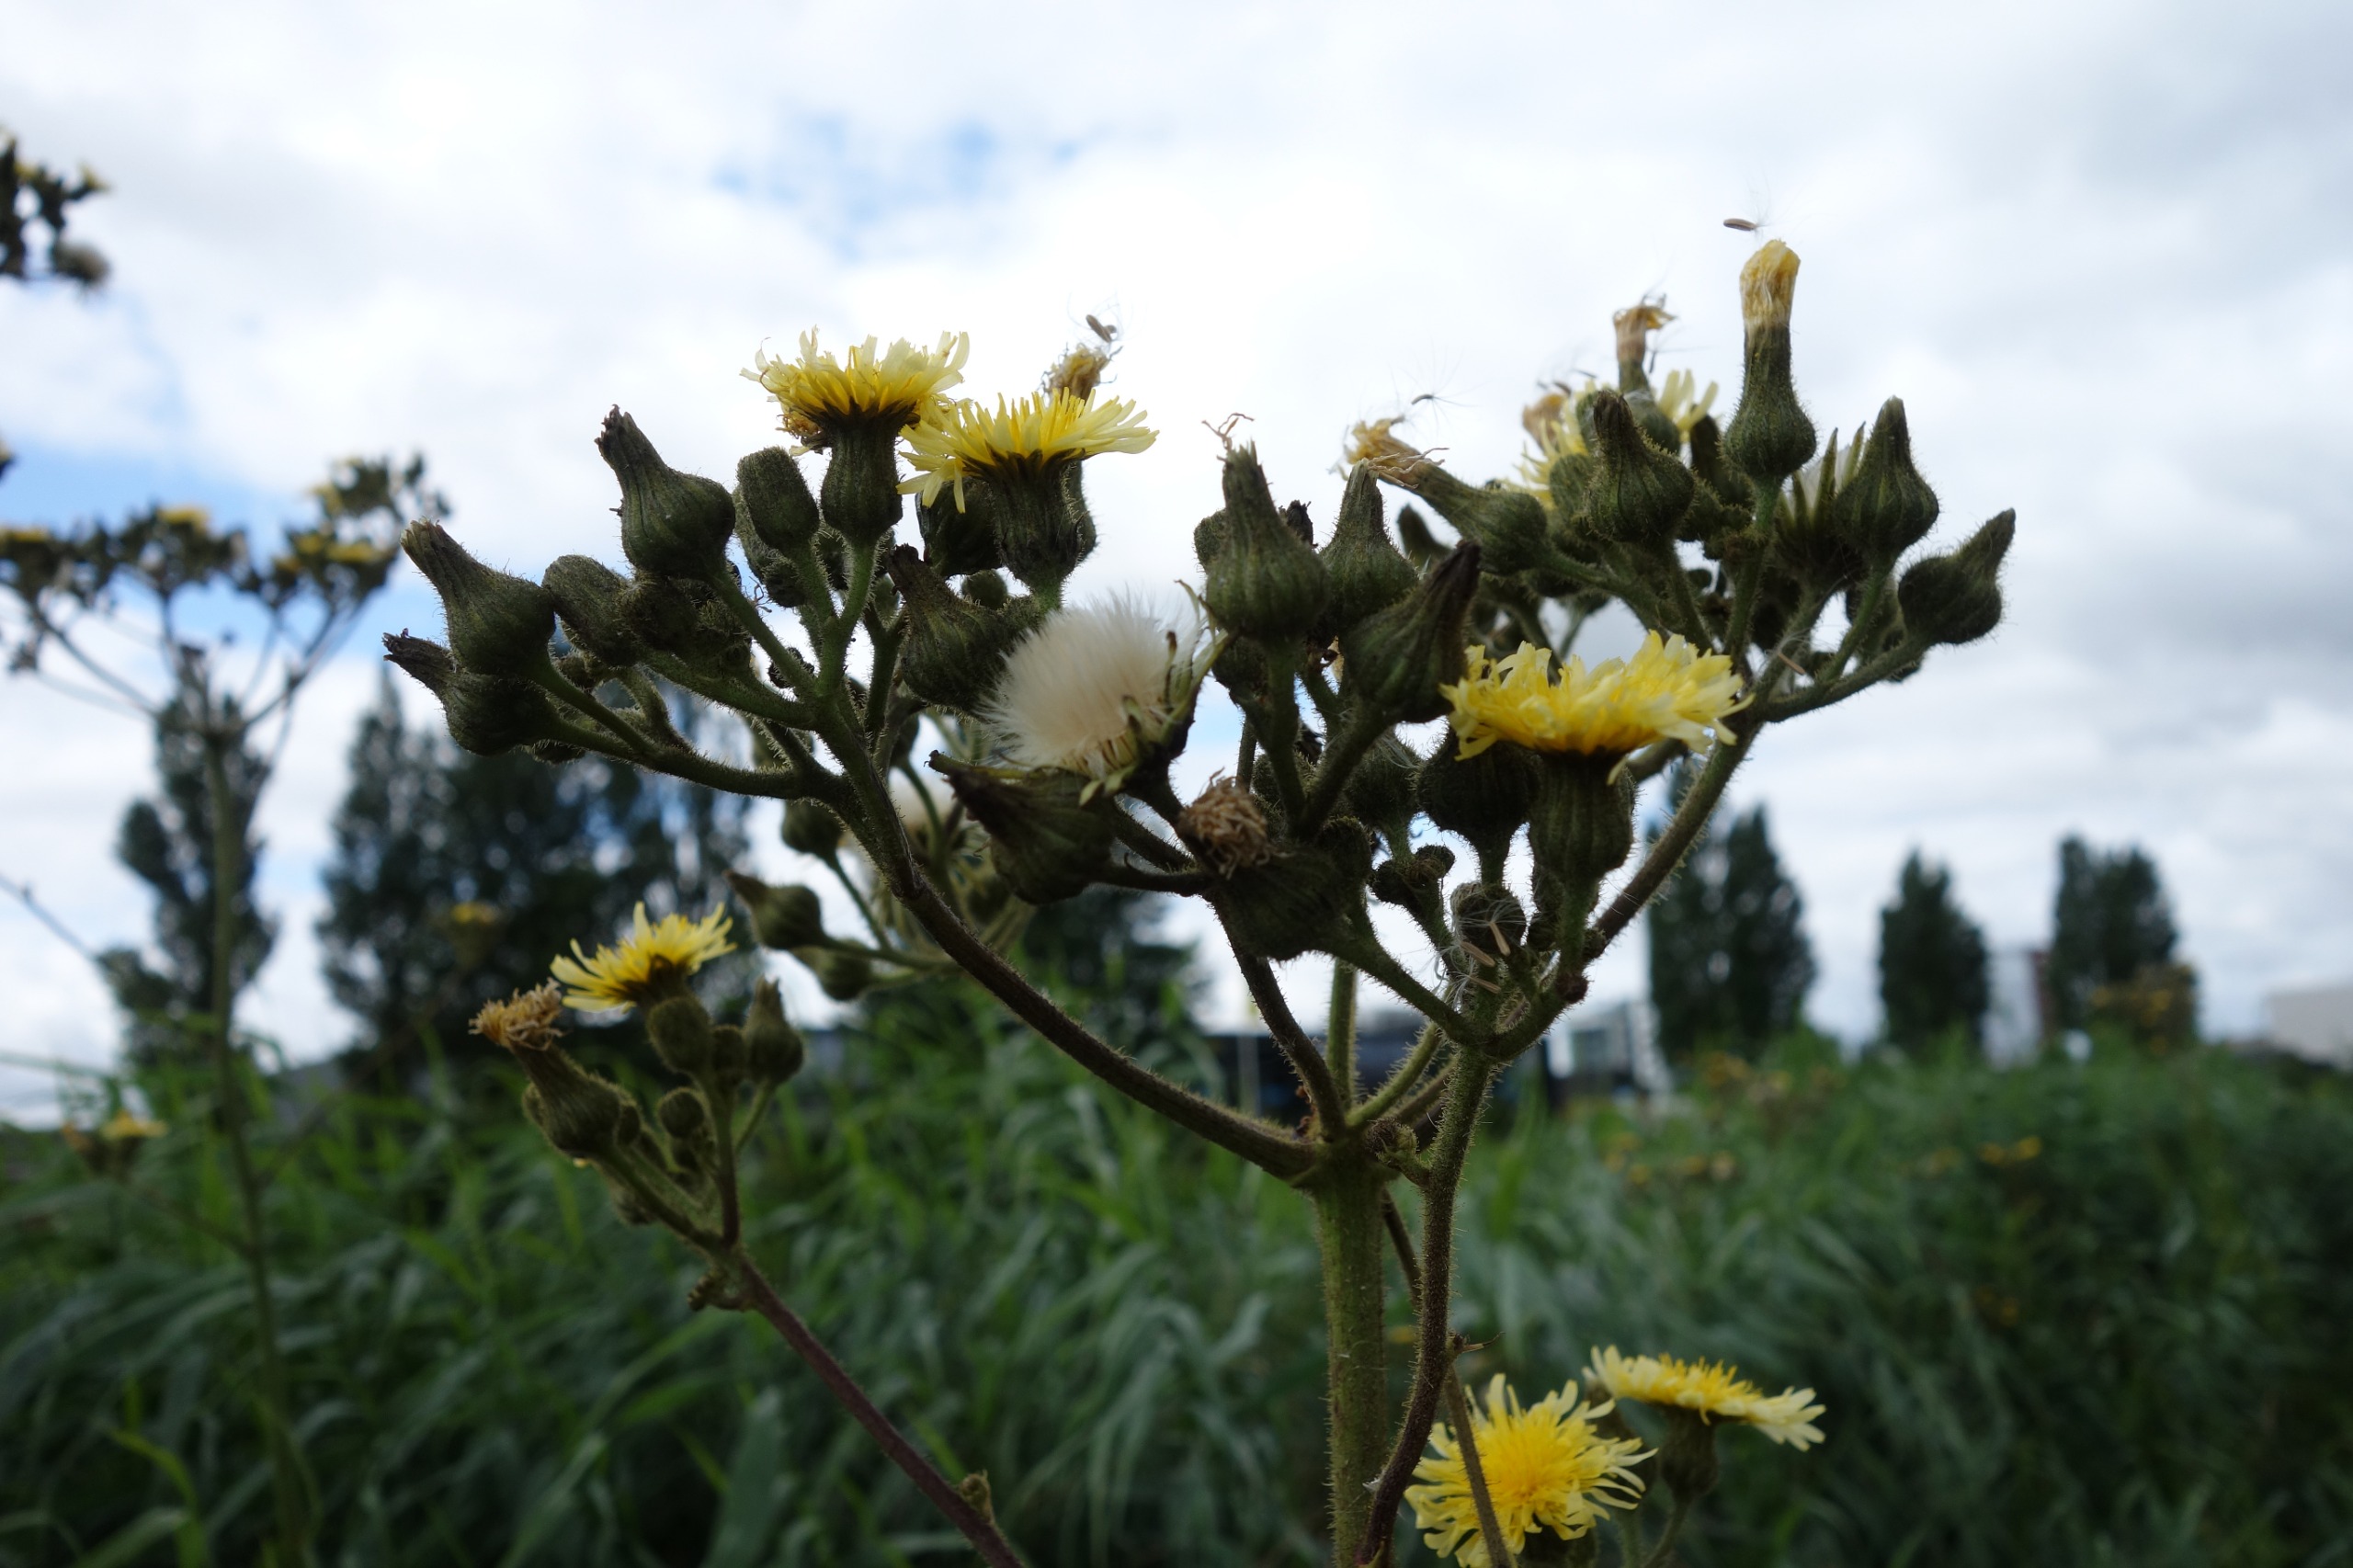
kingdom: Plantae
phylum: Tracheophyta
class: Magnoliopsida
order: Asterales
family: Asteraceae
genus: Sonchus
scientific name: Sonchus palustris
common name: Kær-svinemælk
